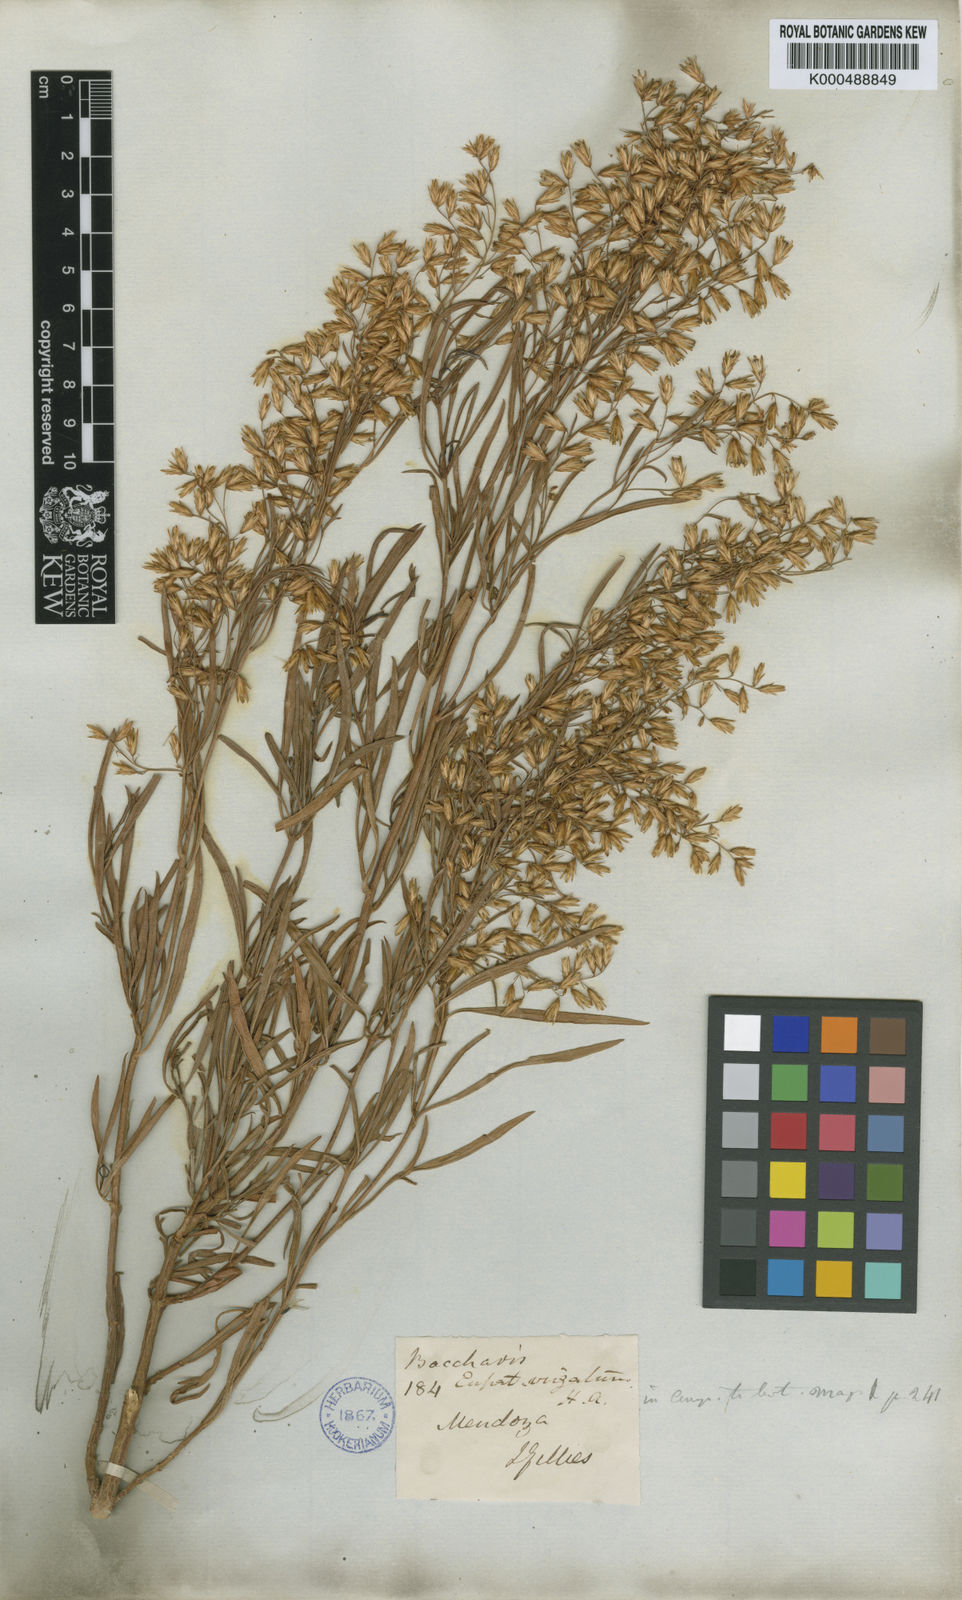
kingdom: Plantae
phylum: Tracheophyta
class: Magnoliopsida
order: Asterales
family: Asteraceae
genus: Acanthostyles
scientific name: Acanthostyles buniifolius
